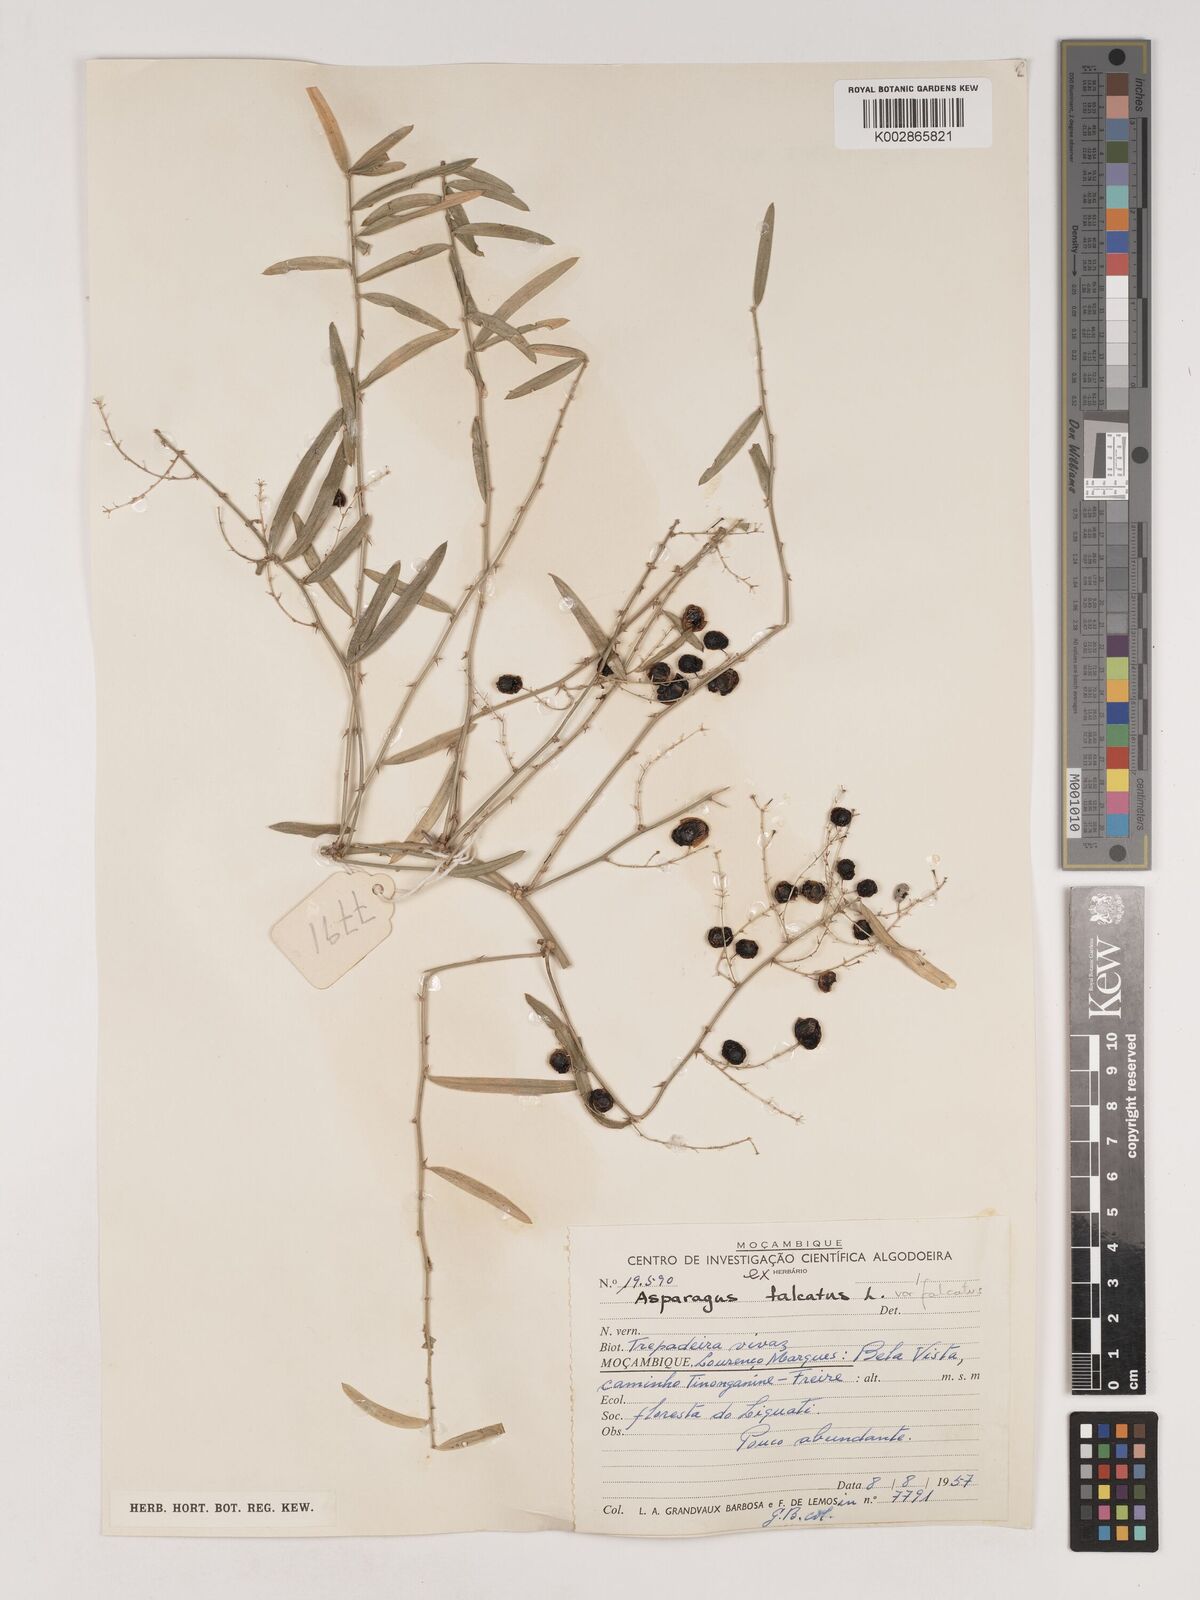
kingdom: Plantae
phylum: Tracheophyta
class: Liliopsida
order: Asparagales
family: Asparagaceae
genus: Asparagus
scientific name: Asparagus falcatus
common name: Asparagus
